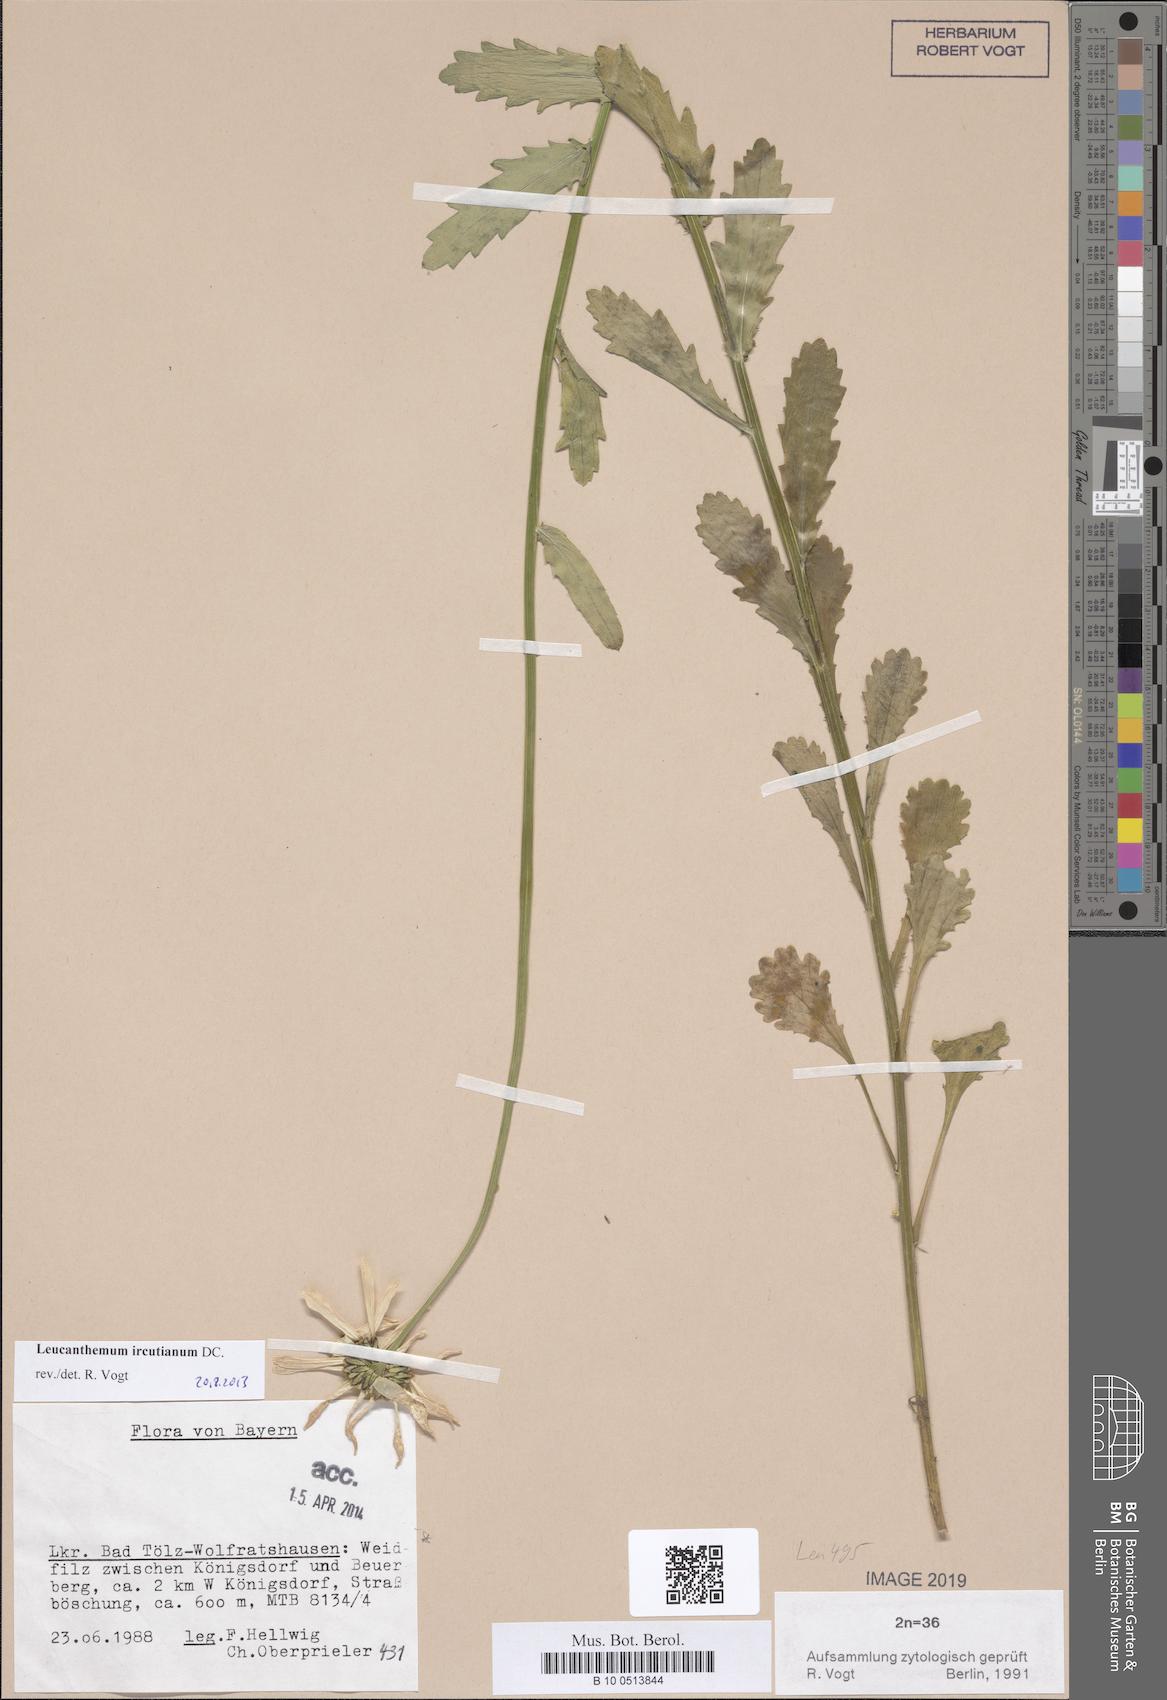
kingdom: Plantae
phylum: Tracheophyta
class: Magnoliopsida
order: Asterales
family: Asteraceae
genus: Leucanthemum
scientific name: Leucanthemum ircutianum
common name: Daisy
